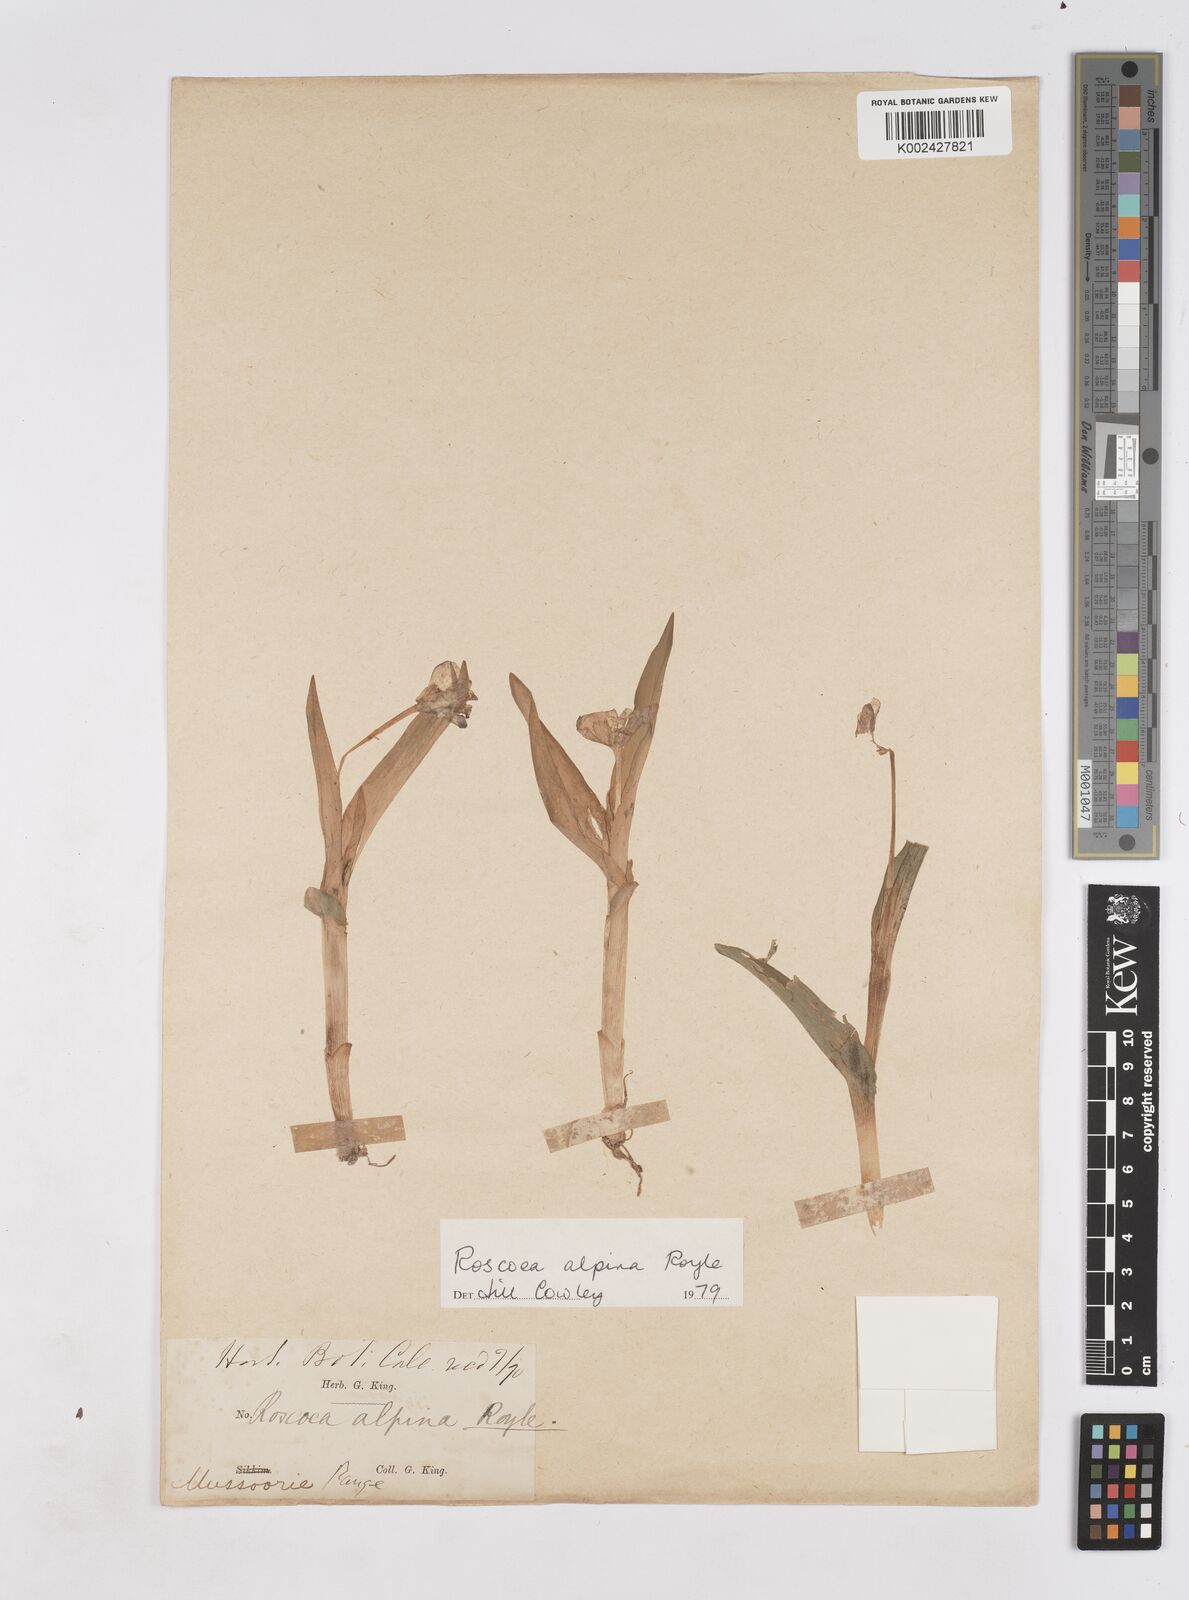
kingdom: Plantae
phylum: Tracheophyta
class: Liliopsida
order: Zingiberales
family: Zingiberaceae
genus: Roscoea
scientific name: Roscoea alpina
